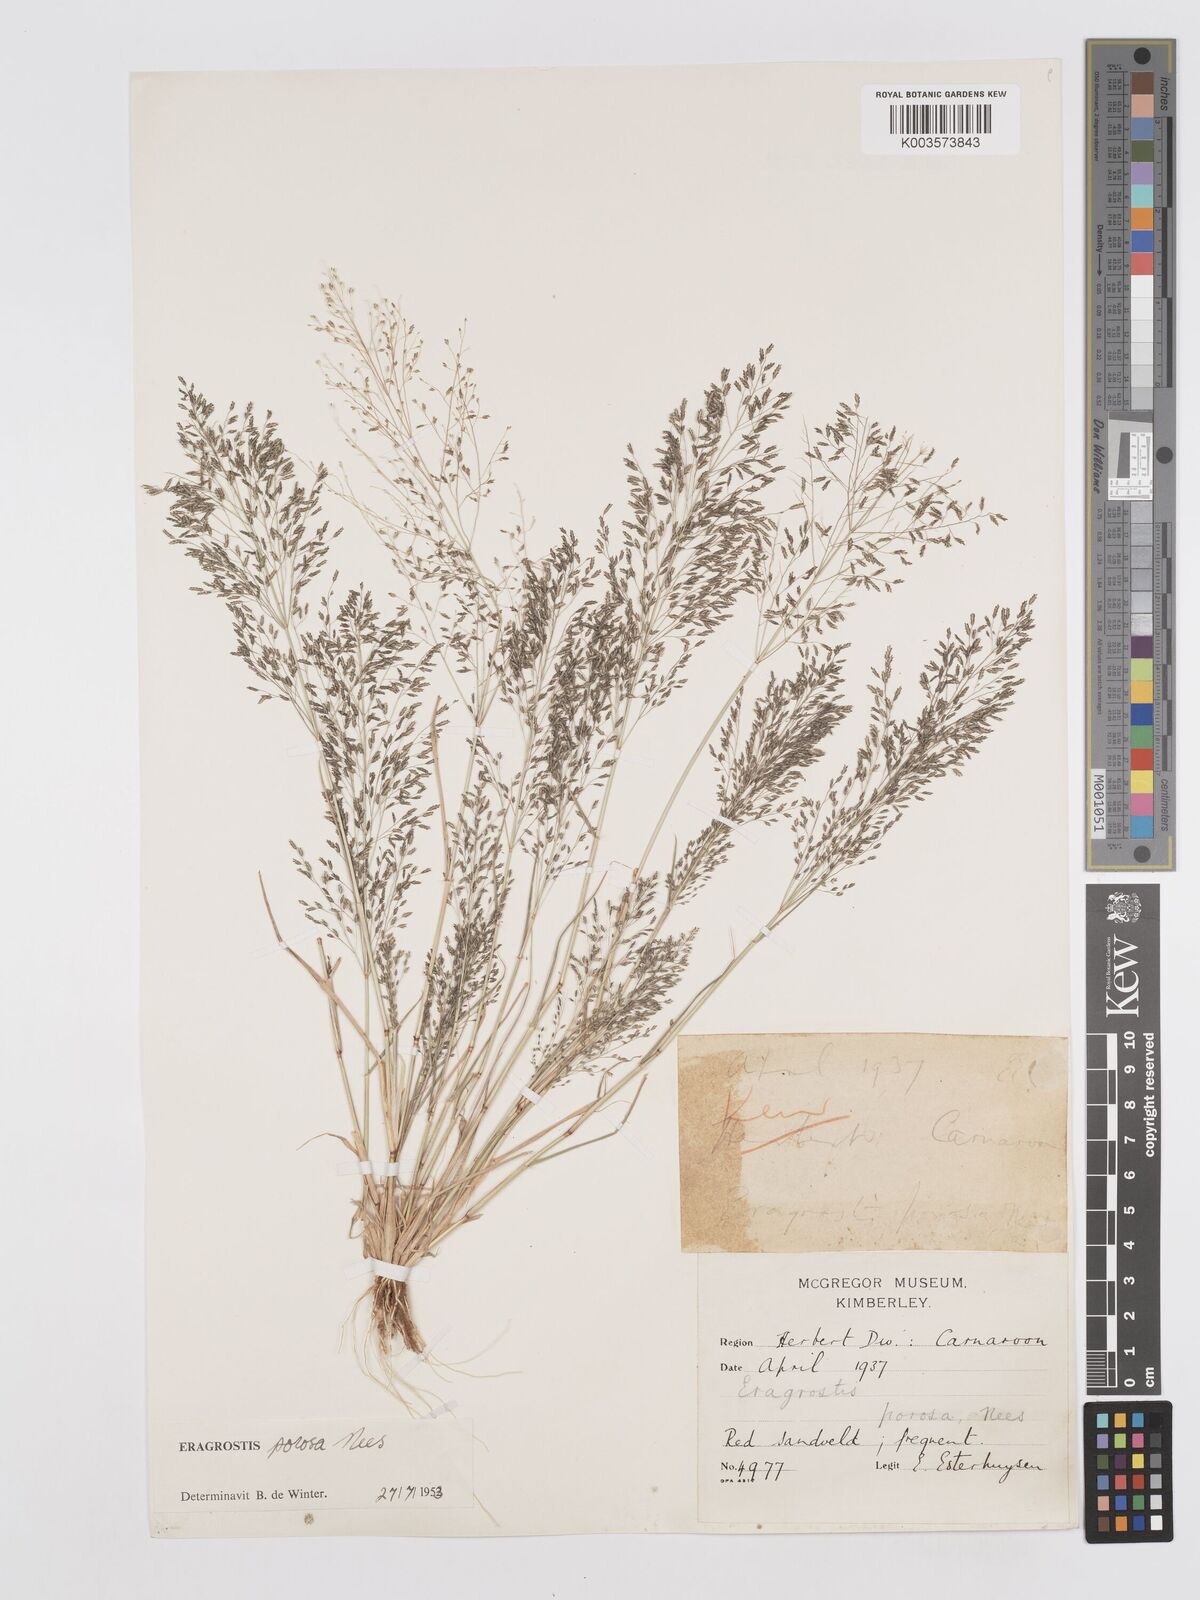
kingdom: Plantae
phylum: Tracheophyta
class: Liliopsida
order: Poales
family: Poaceae
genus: Eragrostis
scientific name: Eragrostis porosa
